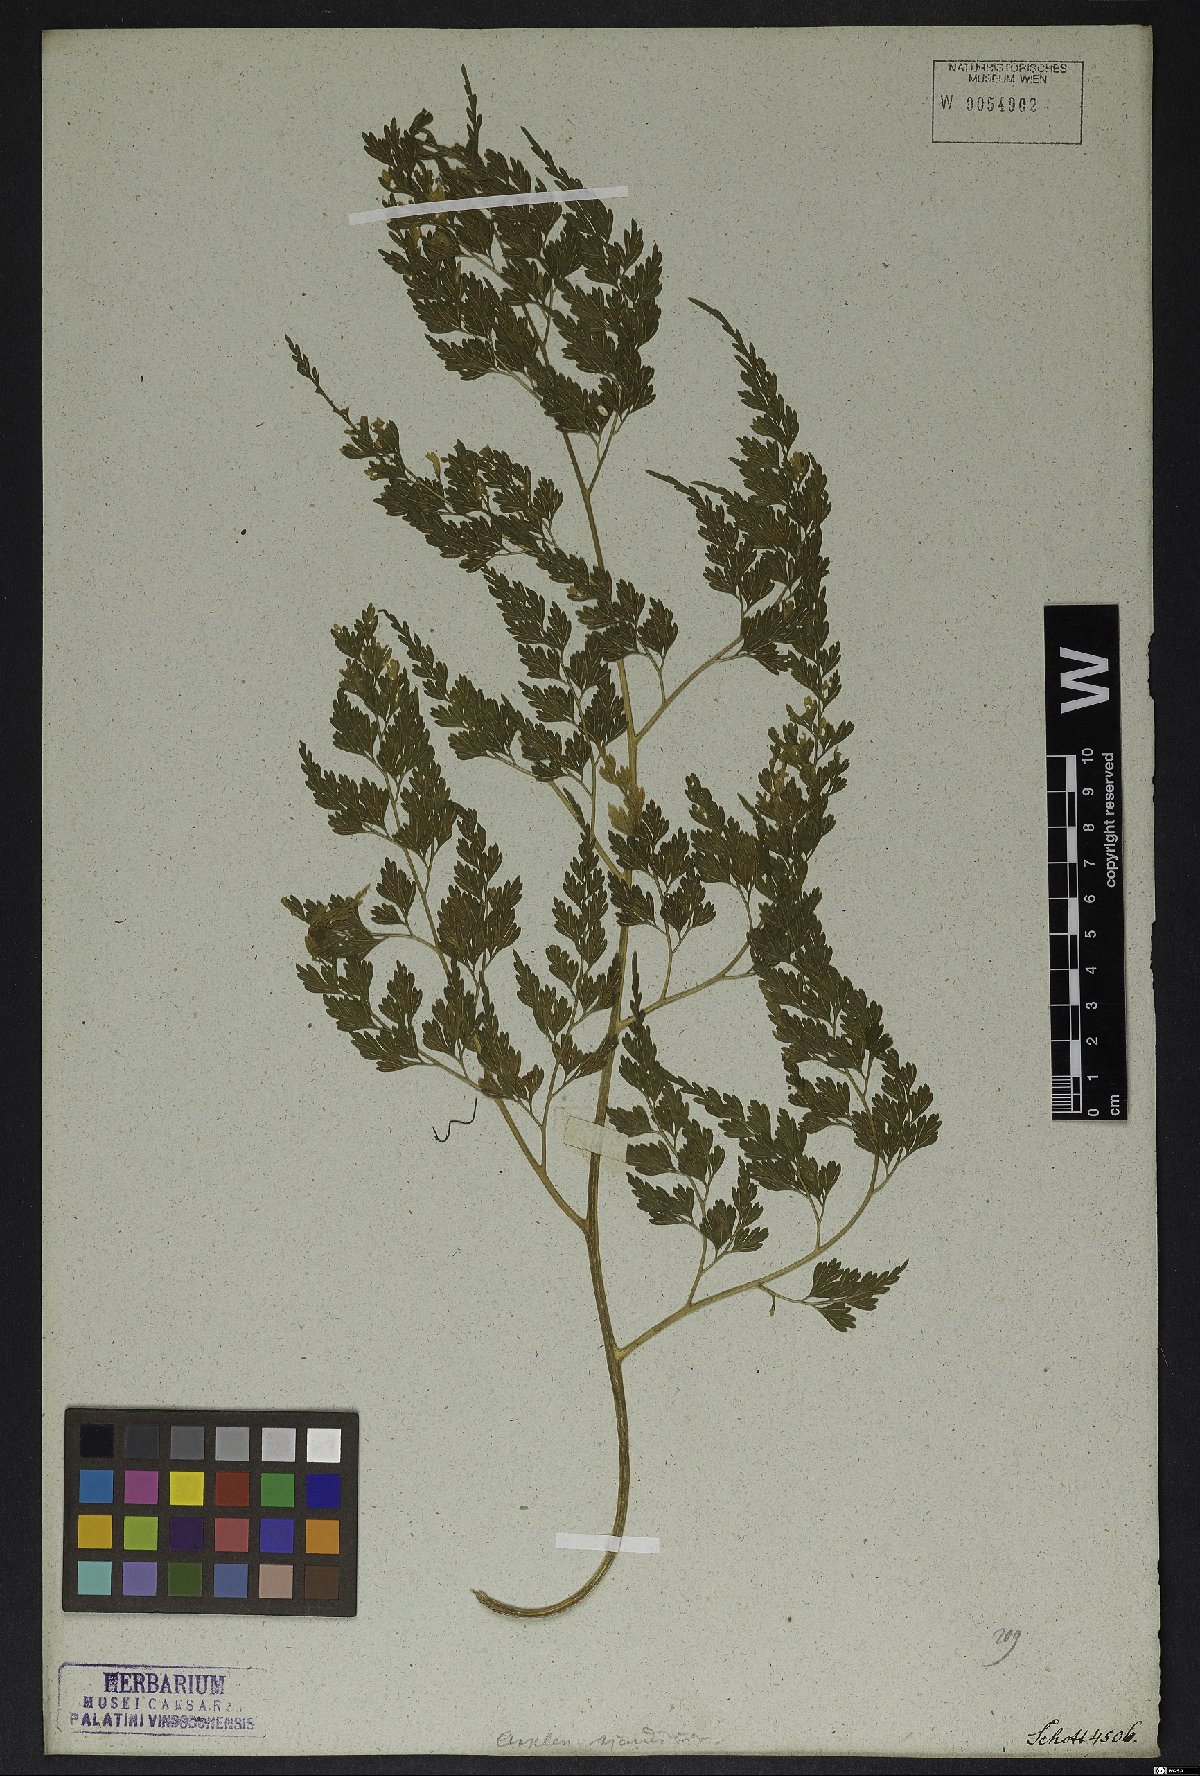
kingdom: Plantae
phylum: Tracheophyta
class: Polypodiopsida
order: Polypodiales
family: Aspleniaceae
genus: Asplenium
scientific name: Asplenium scandicinum
